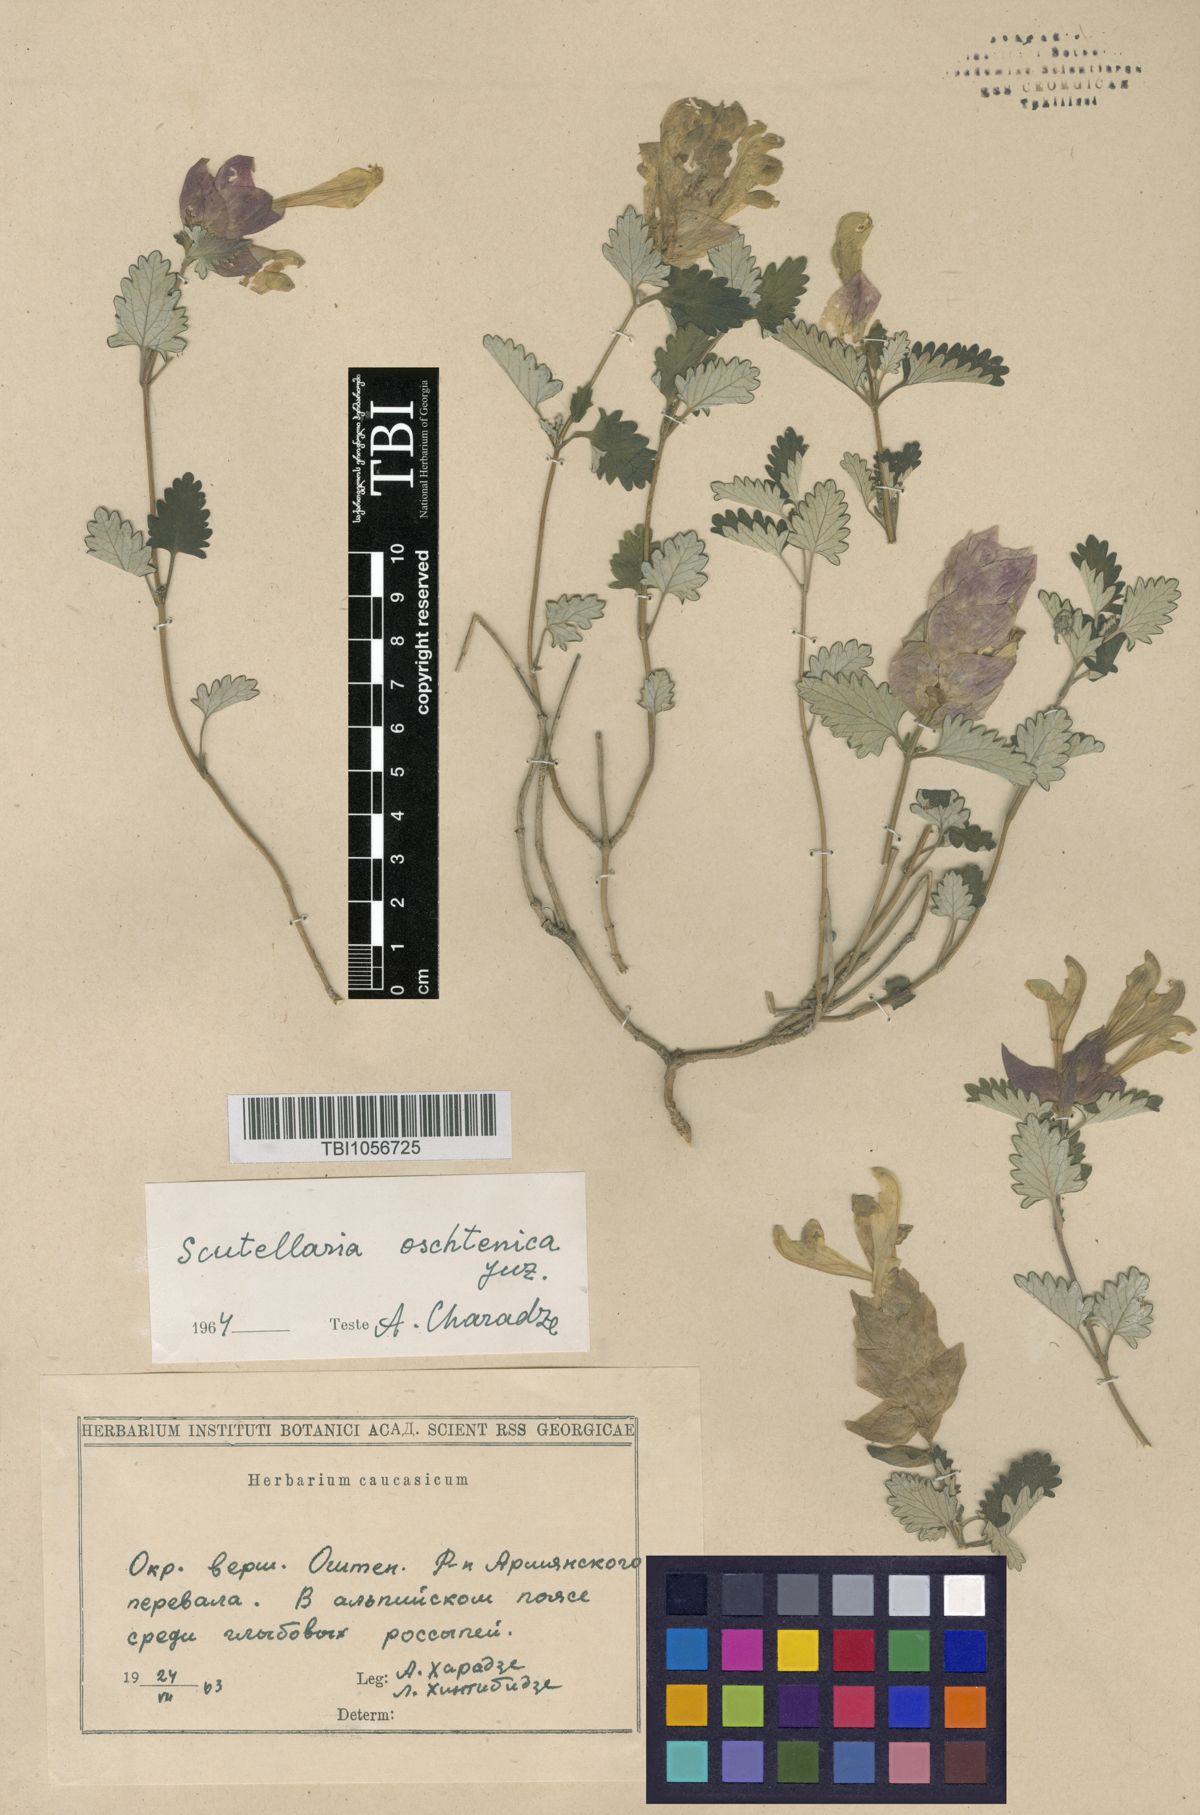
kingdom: Plantae
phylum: Tracheophyta
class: Magnoliopsida
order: Lamiales
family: Lamiaceae
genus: Scutellaria
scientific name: Scutellaria oschtenica
